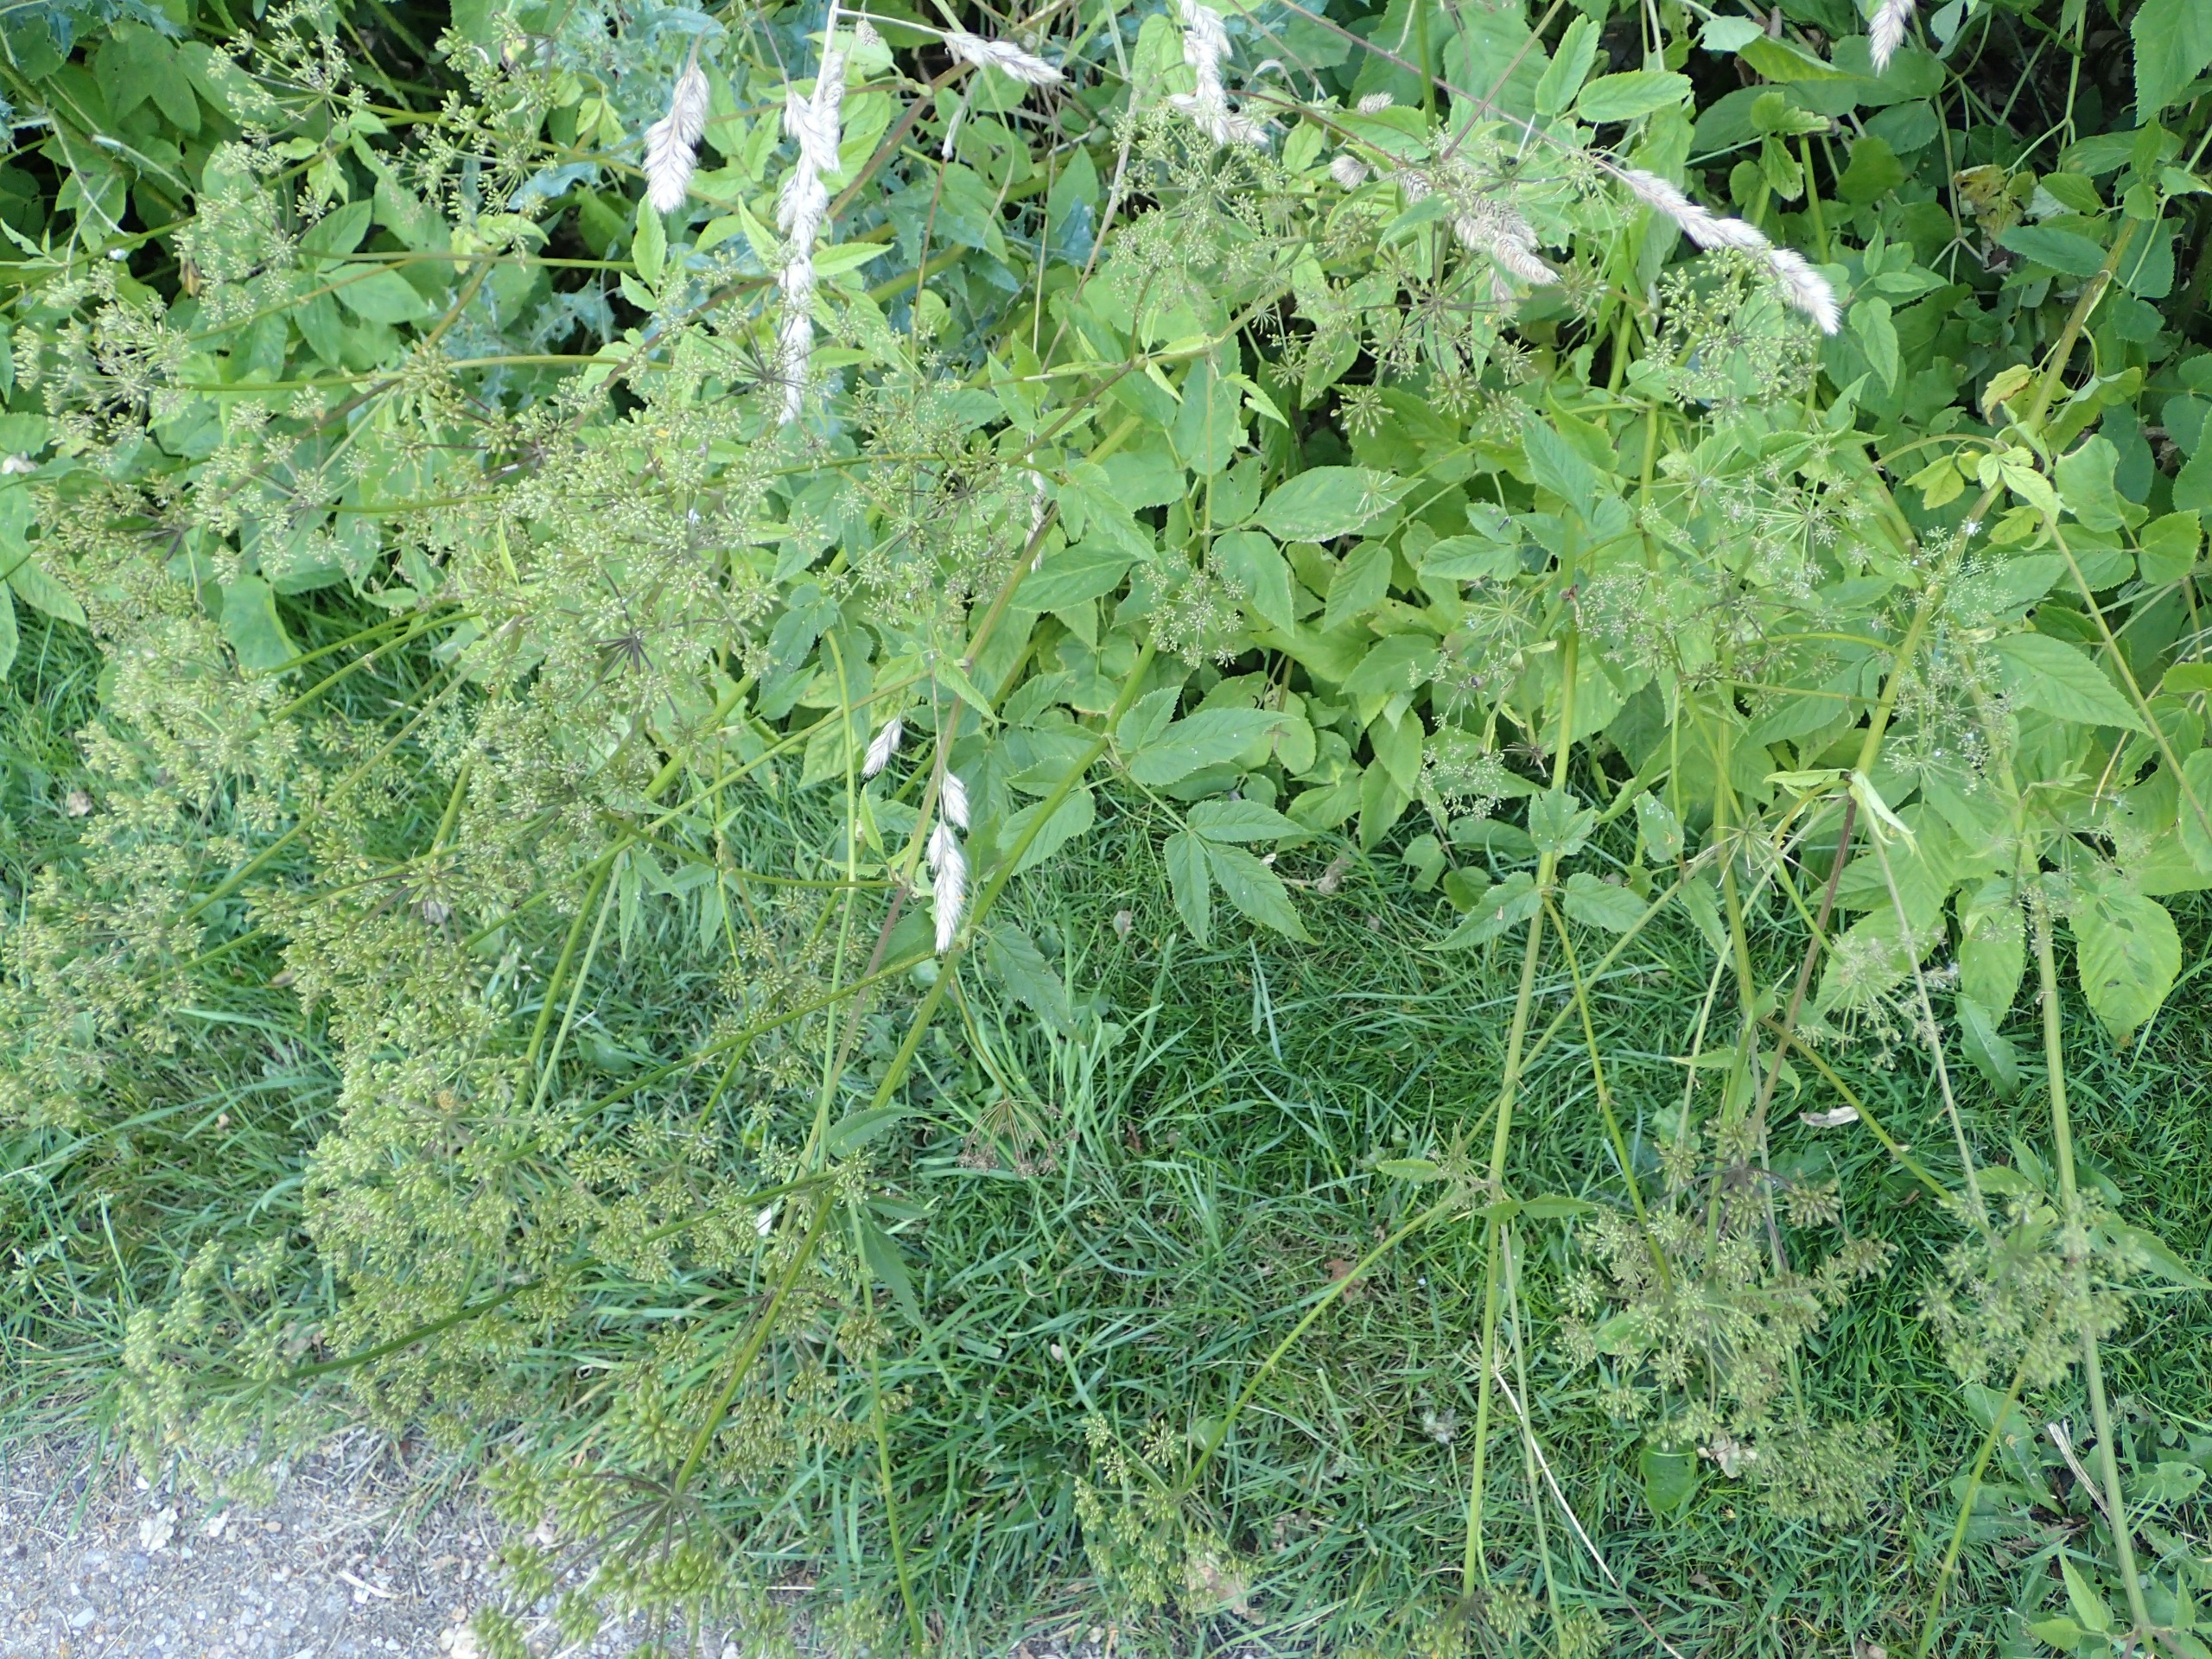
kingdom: Plantae
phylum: Tracheophyta
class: Magnoliopsida
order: Apiales
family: Apiaceae
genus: Aegopodium
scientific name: Aegopodium podagraria
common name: Skvalderkål
